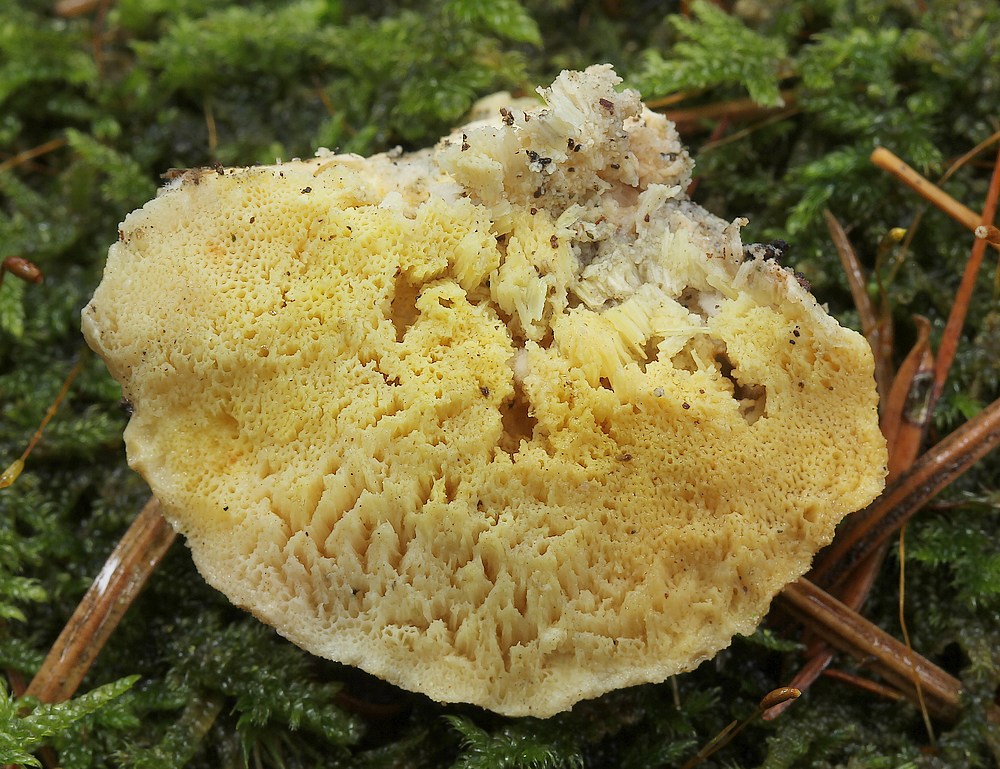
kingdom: Fungi
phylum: Basidiomycota
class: Agaricomycetes
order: Polyporales
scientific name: Polyporales
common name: poresvampordenen
